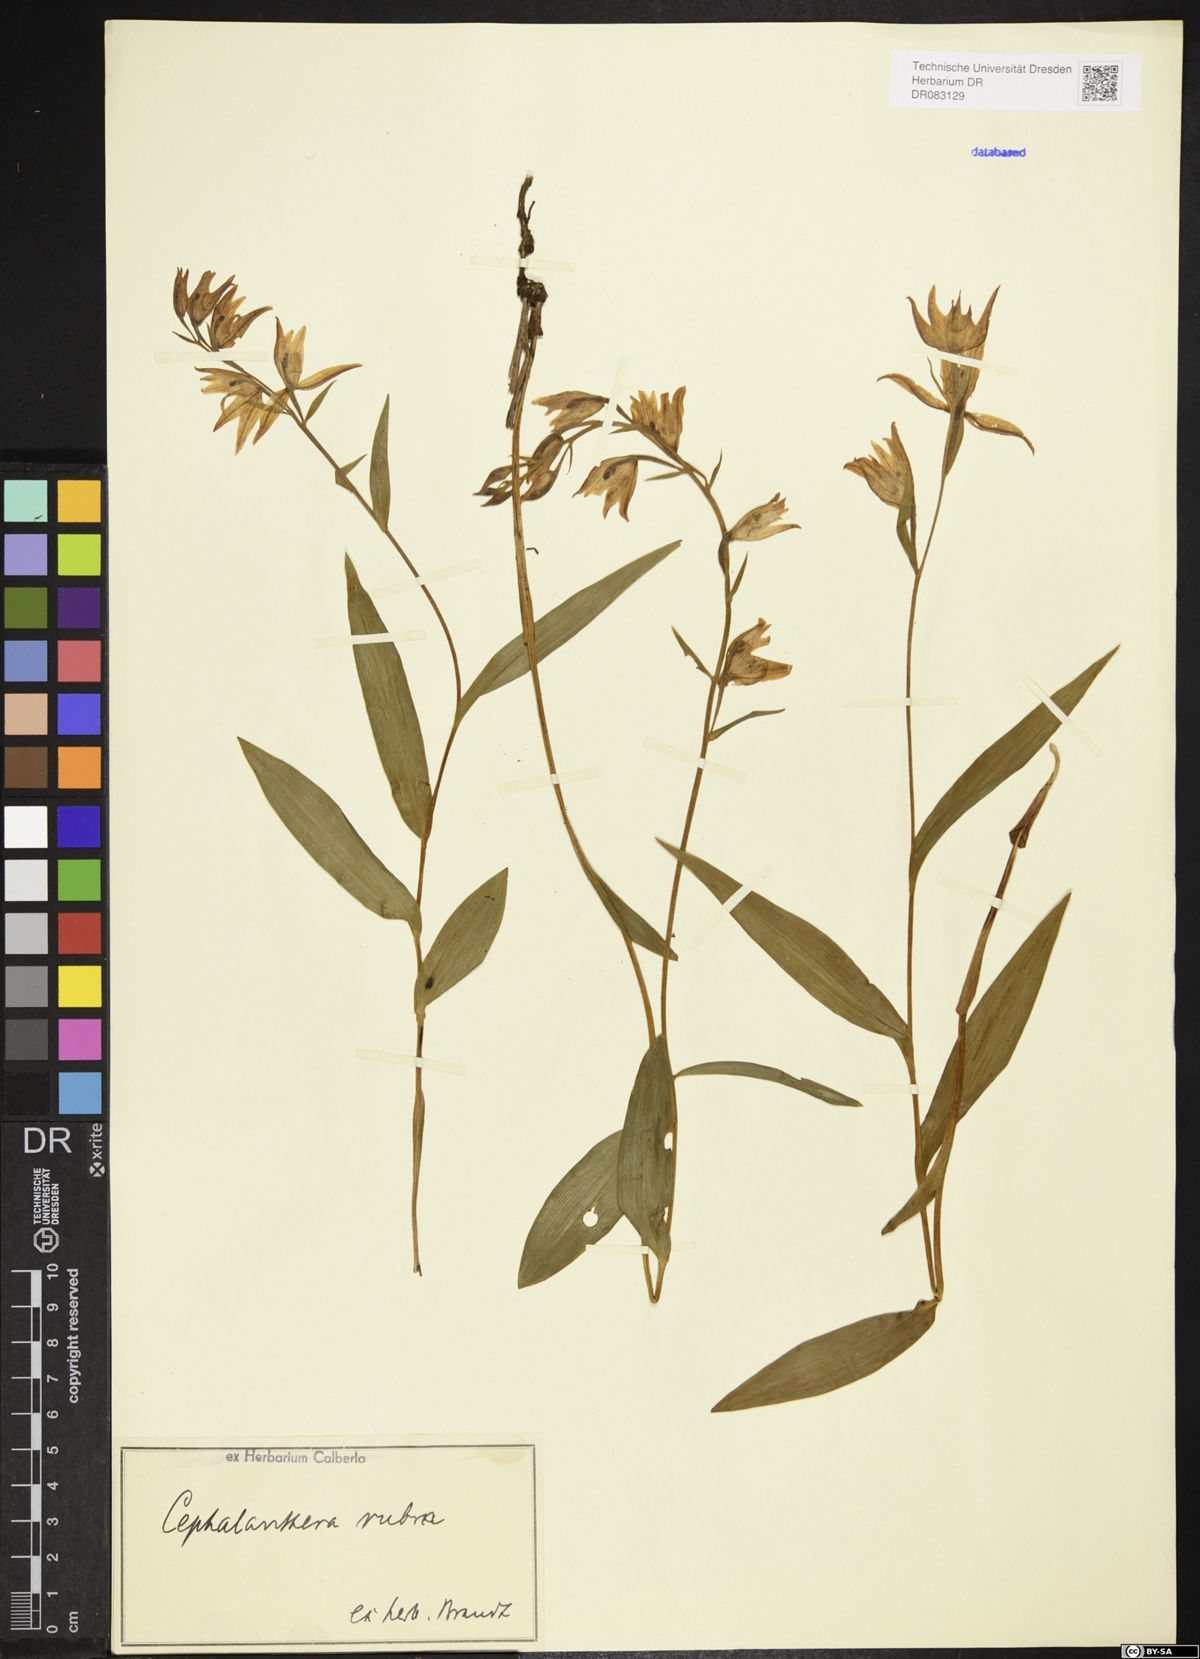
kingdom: Plantae
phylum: Tracheophyta
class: Liliopsida
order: Asparagales
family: Orchidaceae
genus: Cephalanthera
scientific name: Cephalanthera rubra
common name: Red helleborine
